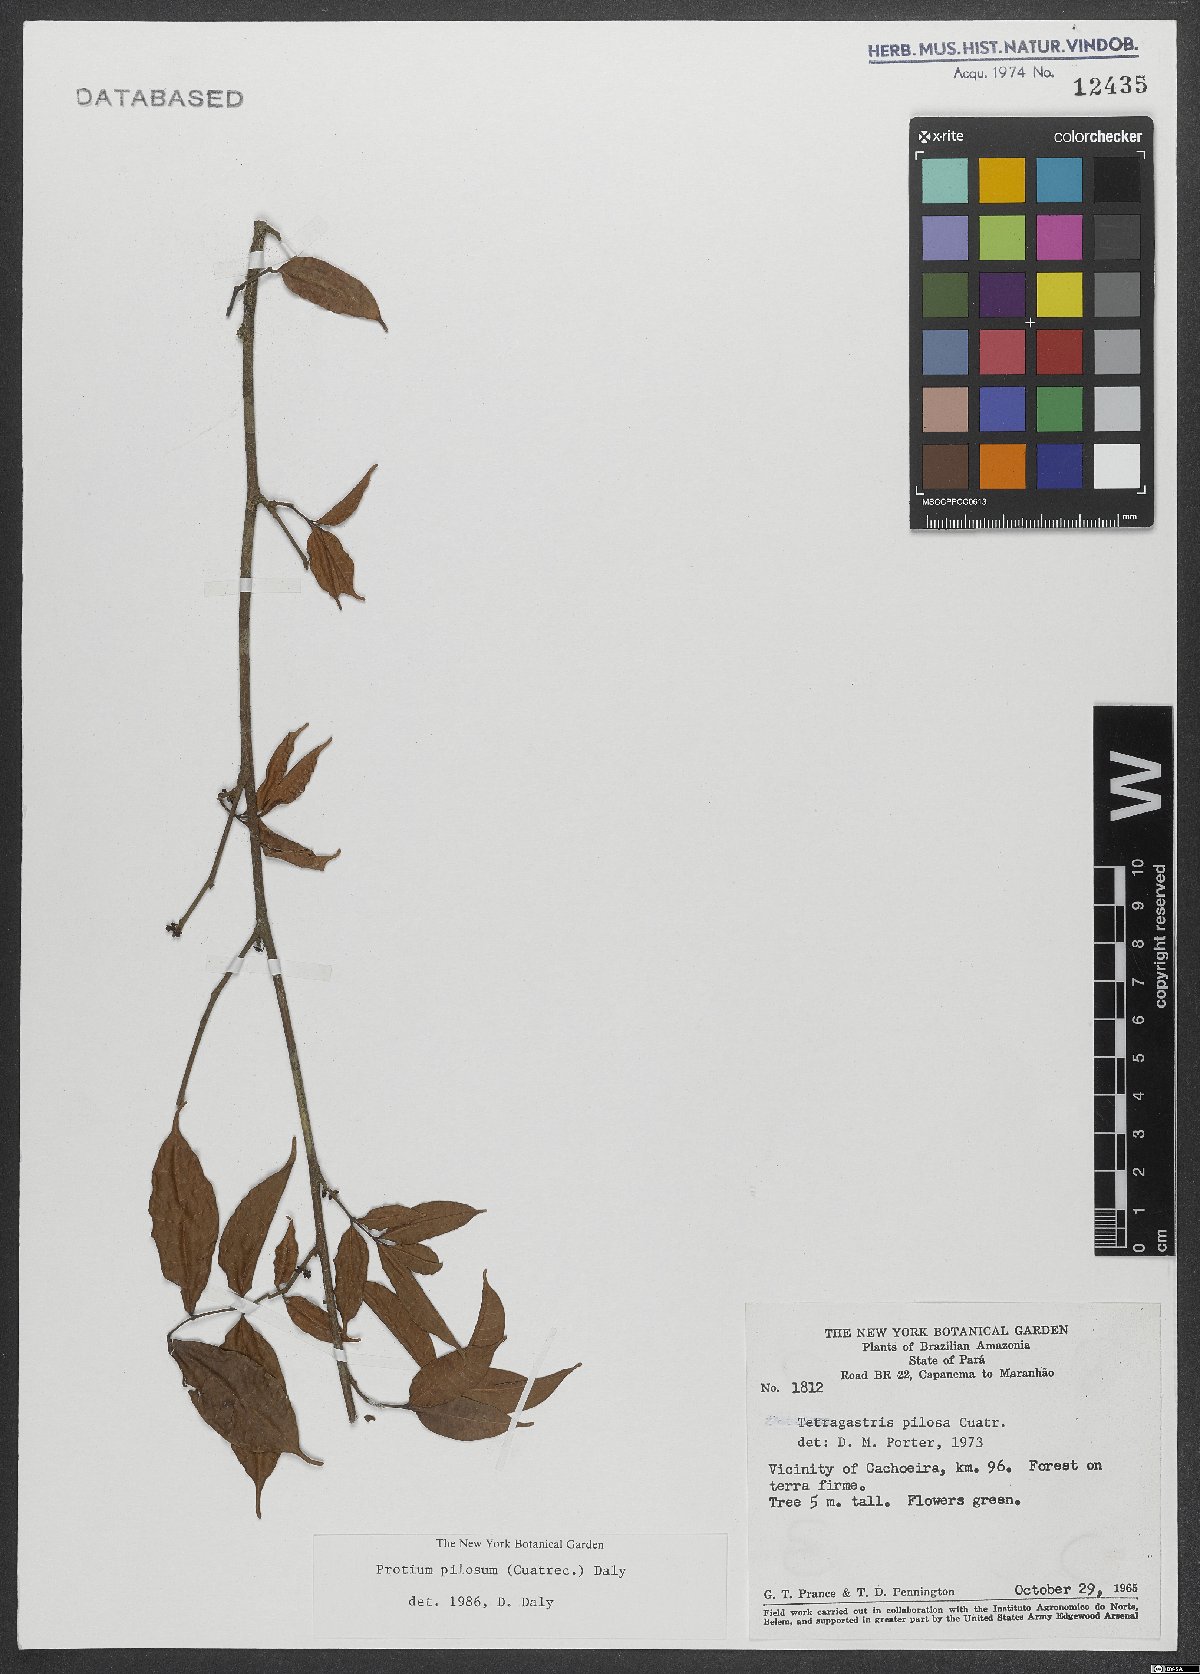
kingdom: Plantae
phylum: Tracheophyta
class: Magnoliopsida
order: Sapindales
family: Burseraceae
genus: Protium
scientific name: Protium pilosum
